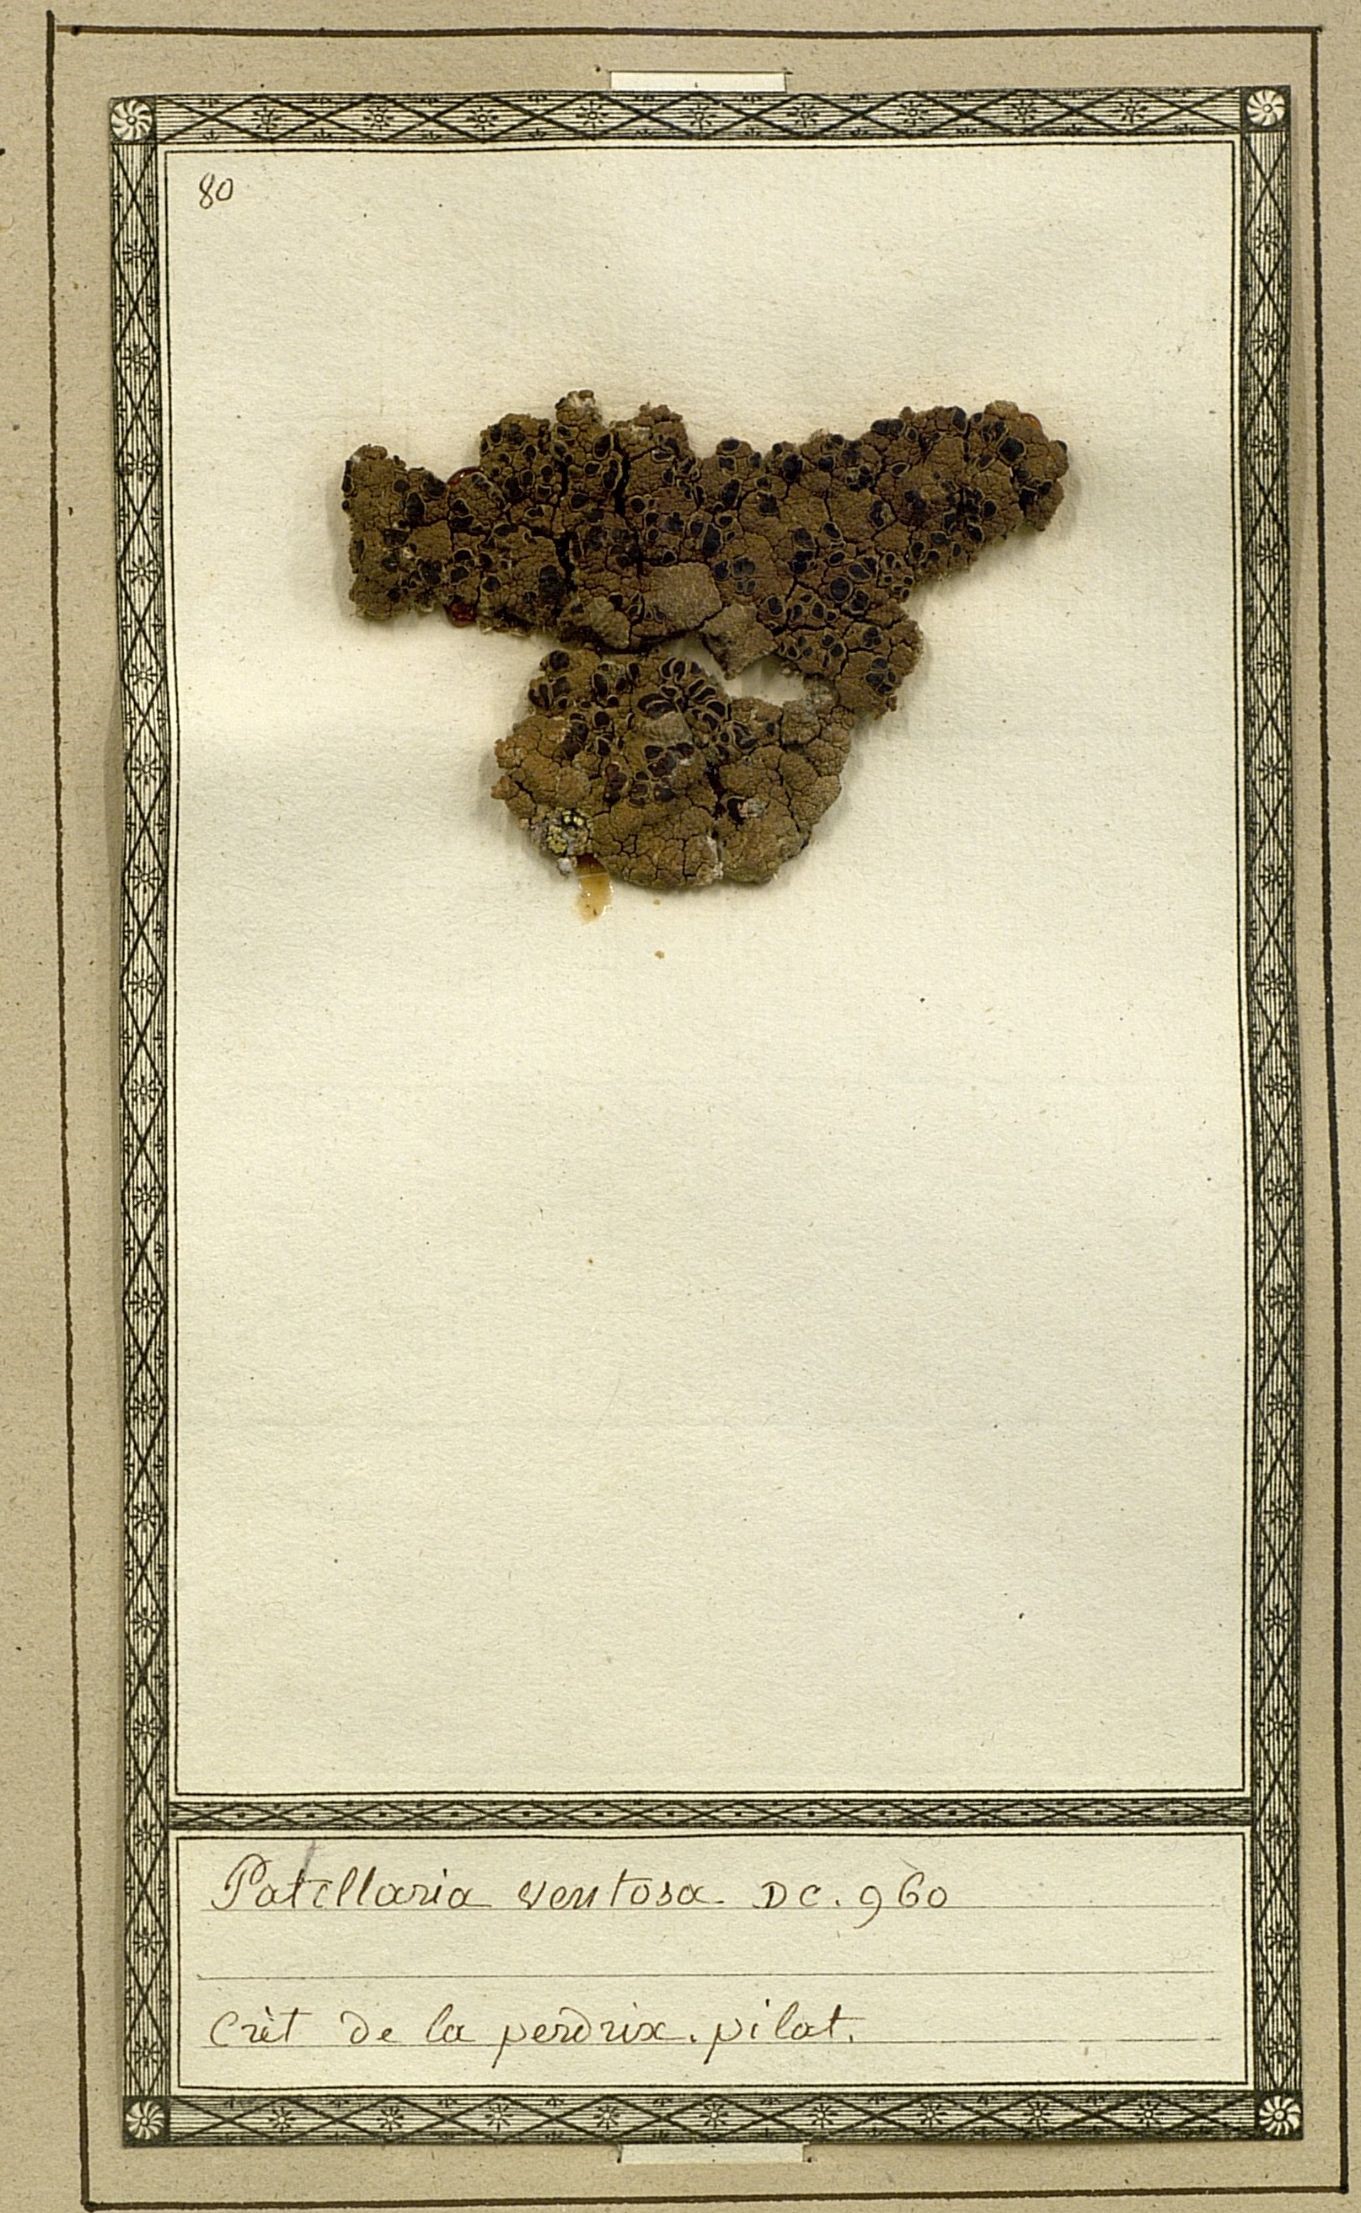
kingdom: Fungi
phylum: Ascomycota
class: Lecanoromycetes
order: Umbilicariales
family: Ophioparmaceae
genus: Ophioparma
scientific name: Ophioparma ventosa
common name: Blood-spot
